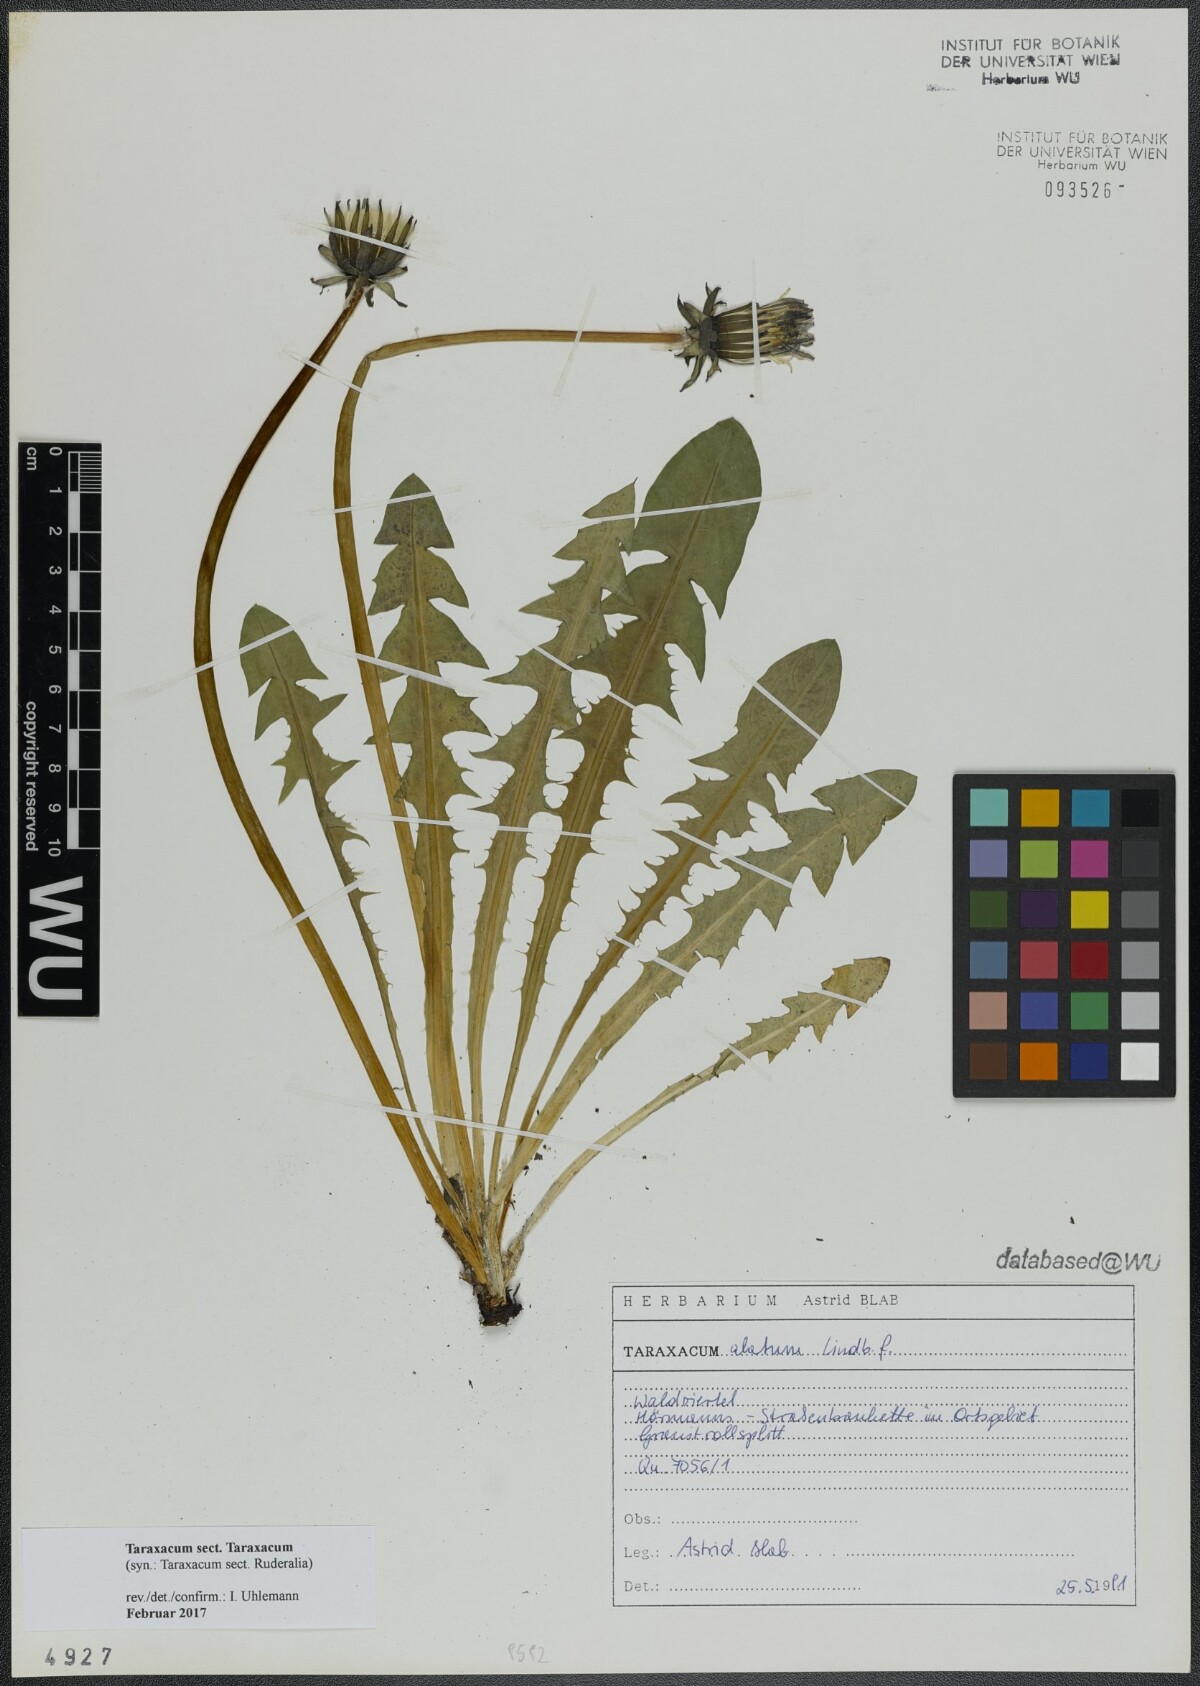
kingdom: Plantae
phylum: Tracheophyta
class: Magnoliopsida
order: Asterales
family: Asteraceae
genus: Taraxacum
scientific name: Taraxacum
